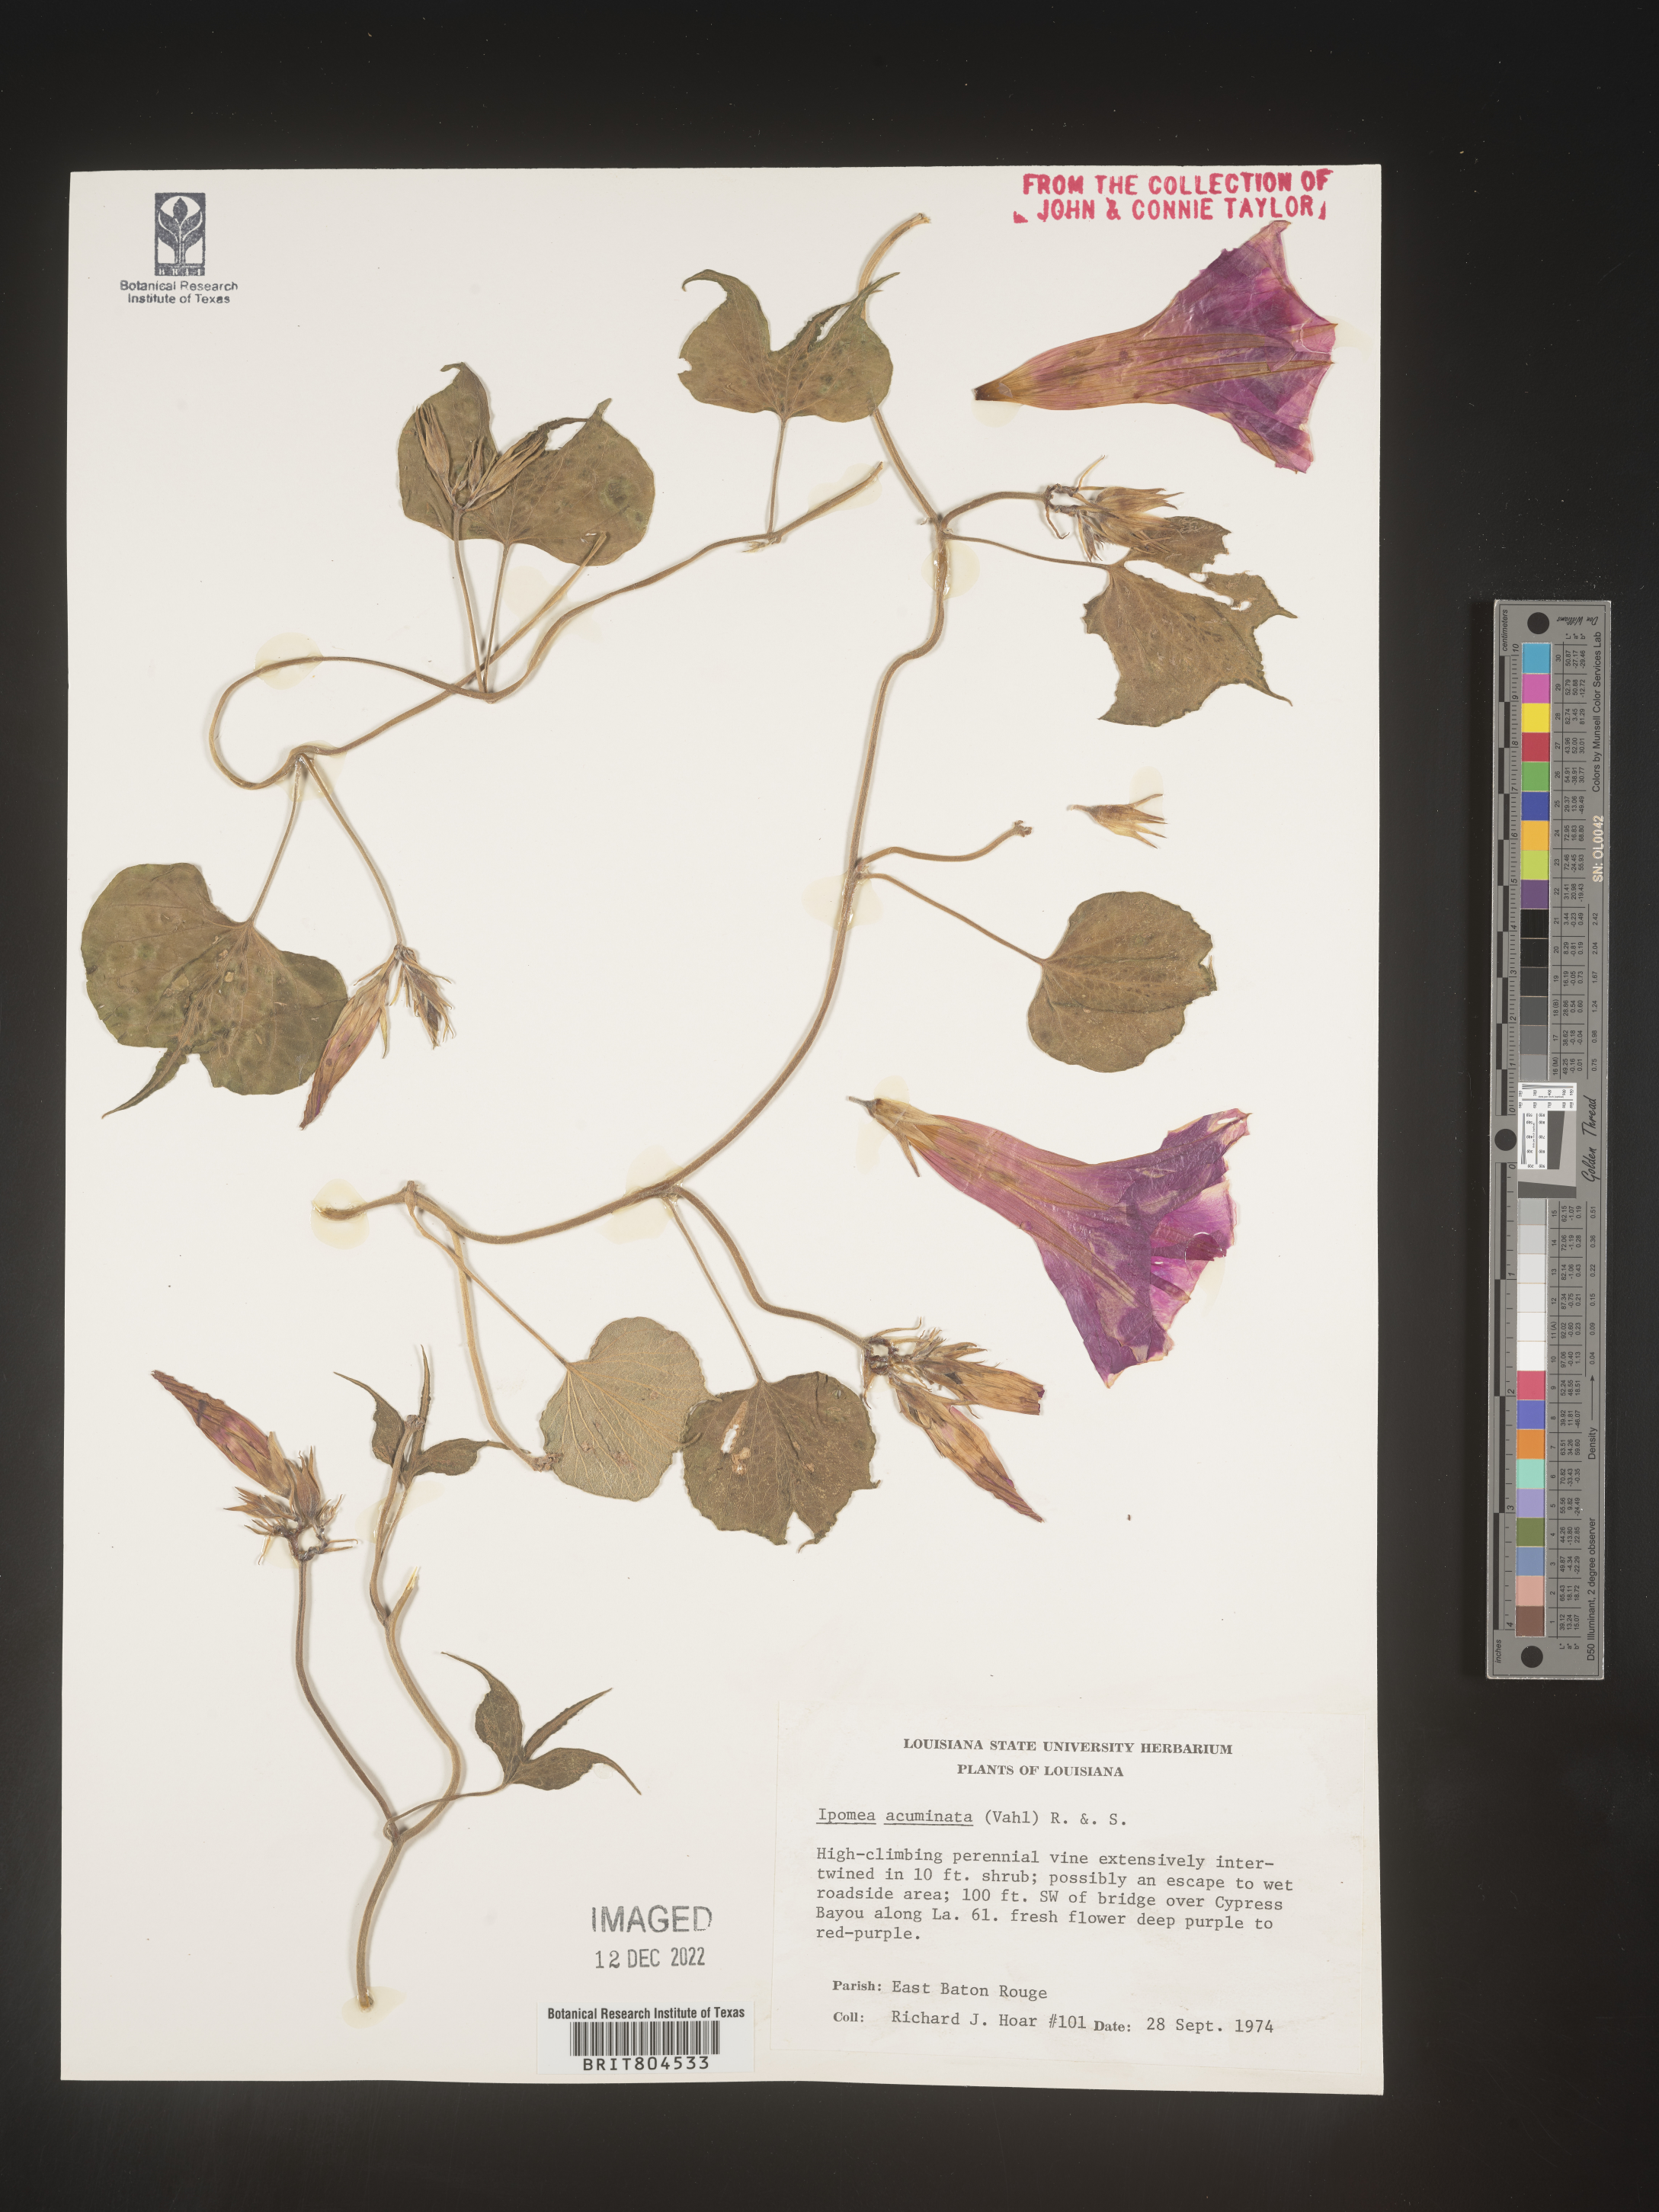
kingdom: Plantae
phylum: Tracheophyta
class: Magnoliopsida
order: Solanales
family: Convolvulaceae
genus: Ipomoea
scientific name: Ipomoea coccinea
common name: Red morning-glory
